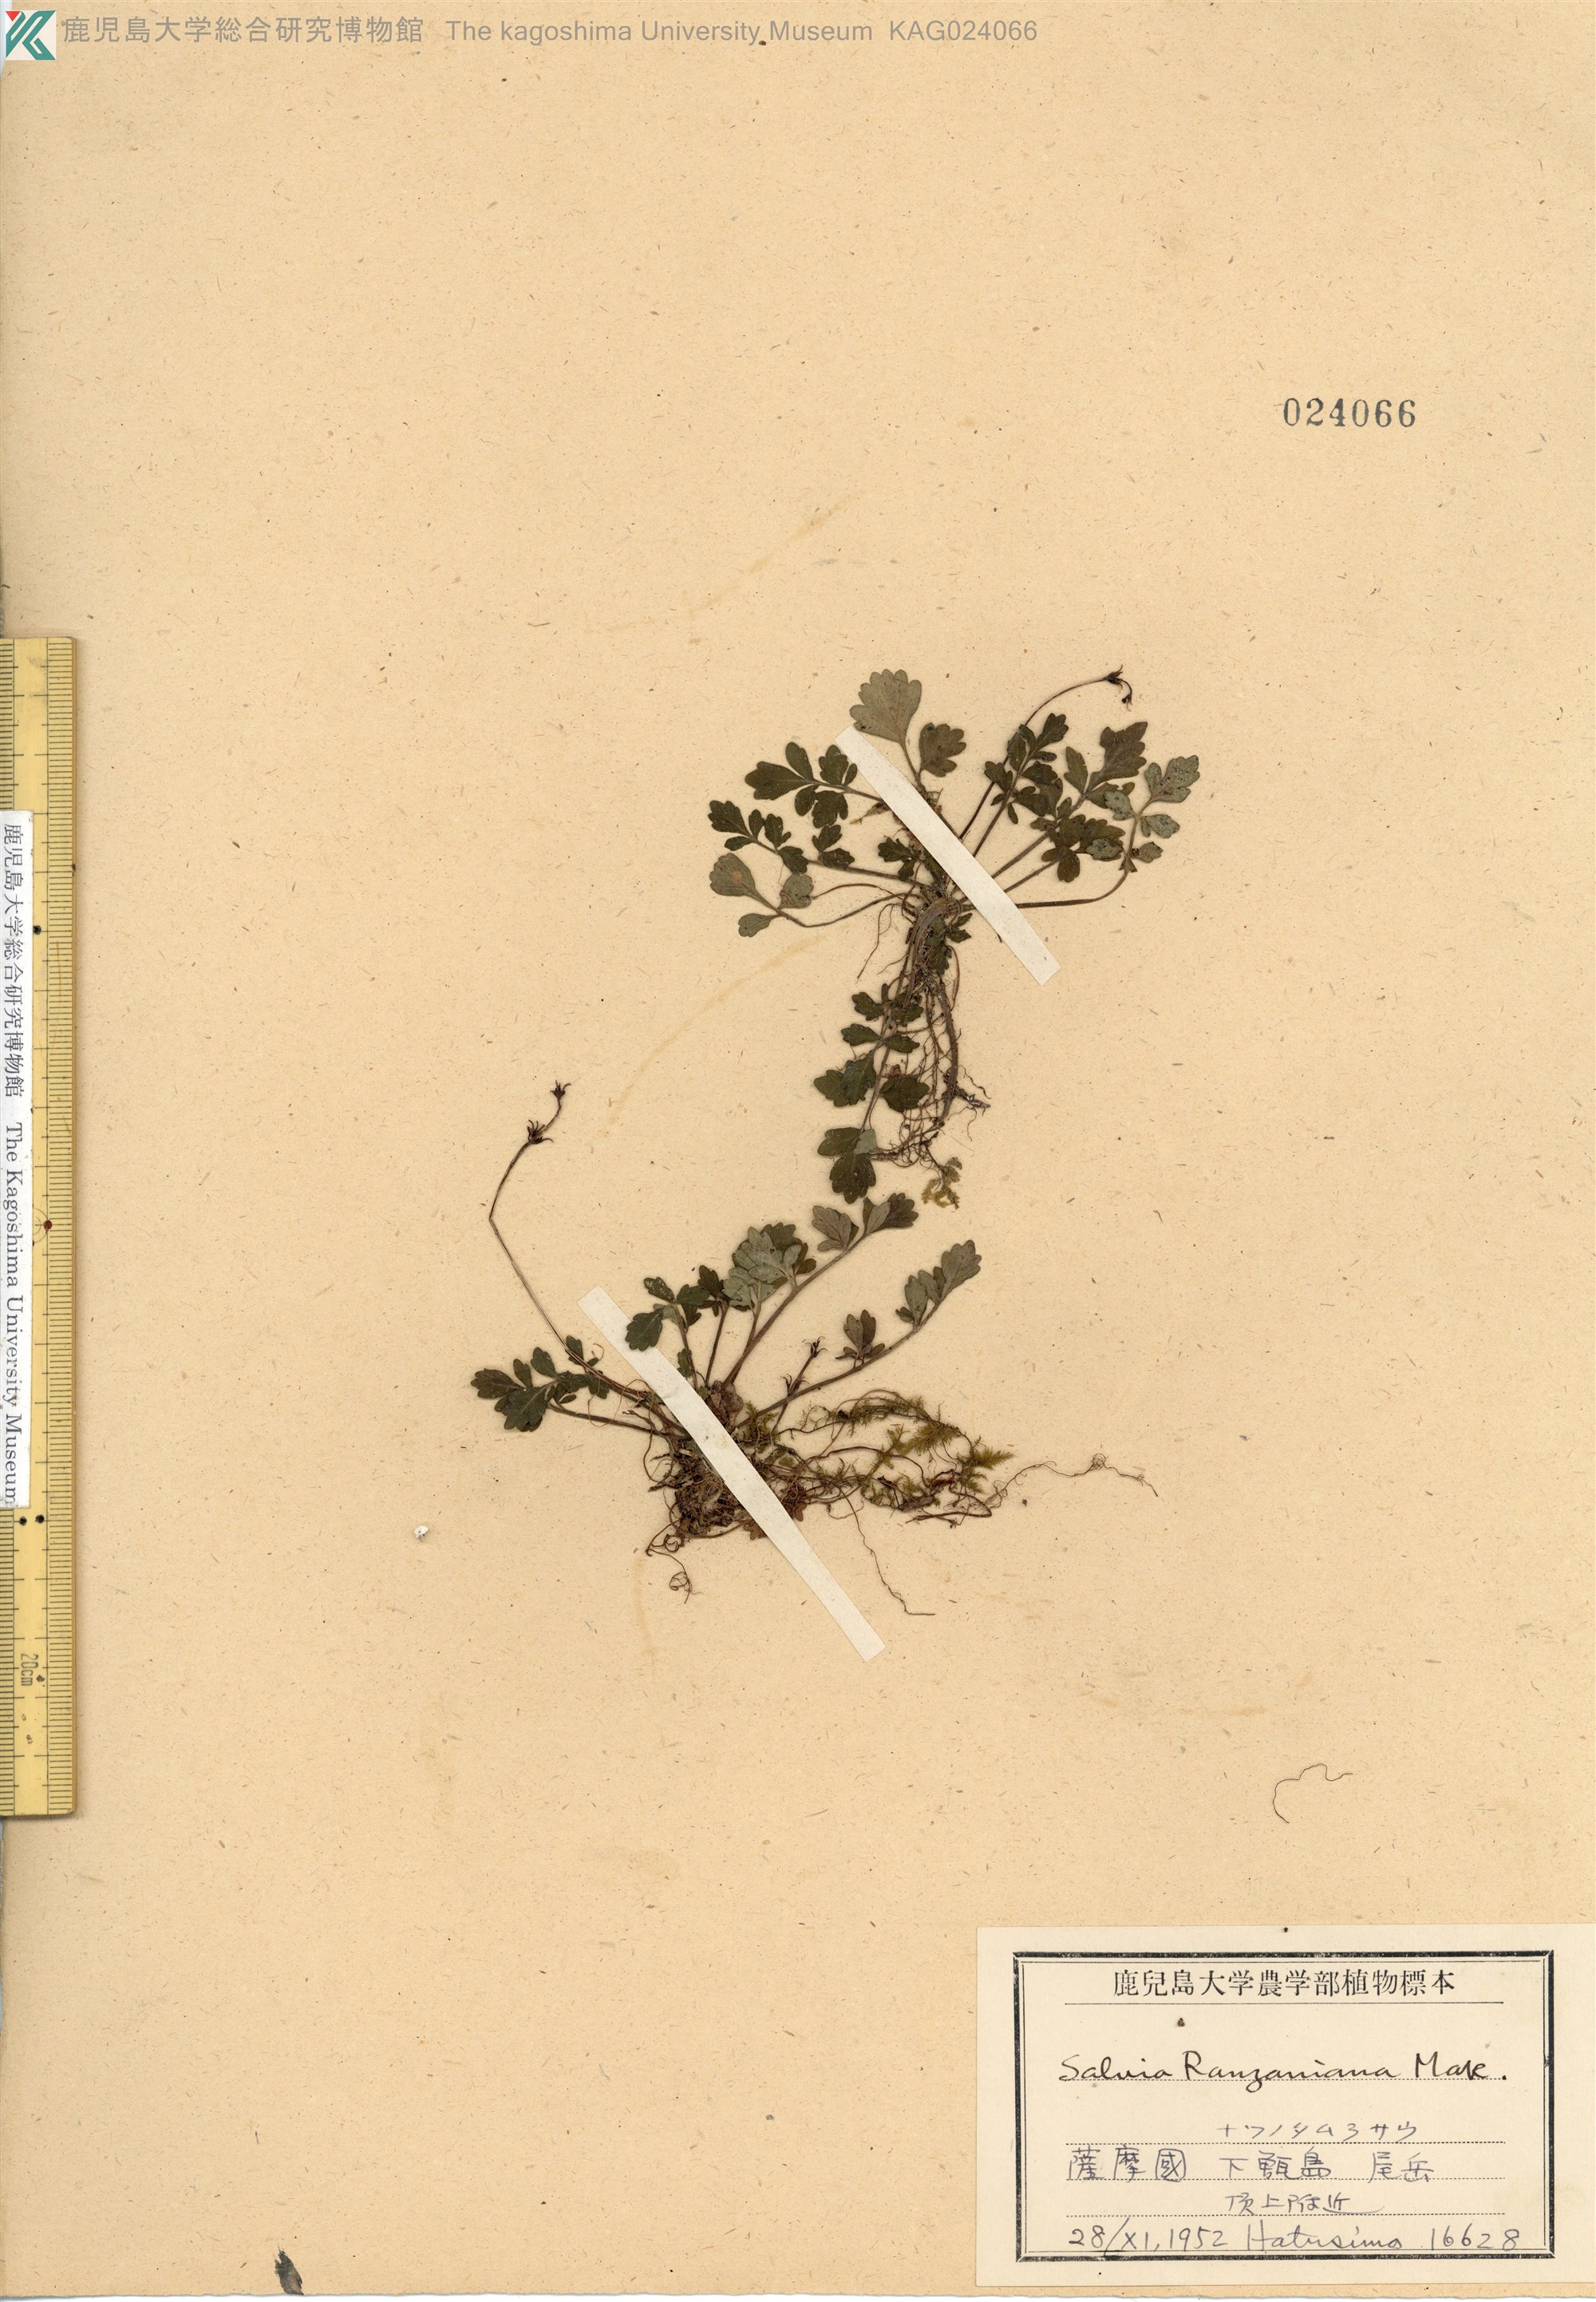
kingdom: Plantae
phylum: Tracheophyta
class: Magnoliopsida
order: Lamiales
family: Lamiaceae
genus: Salvia
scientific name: Salvia ranzaniana
